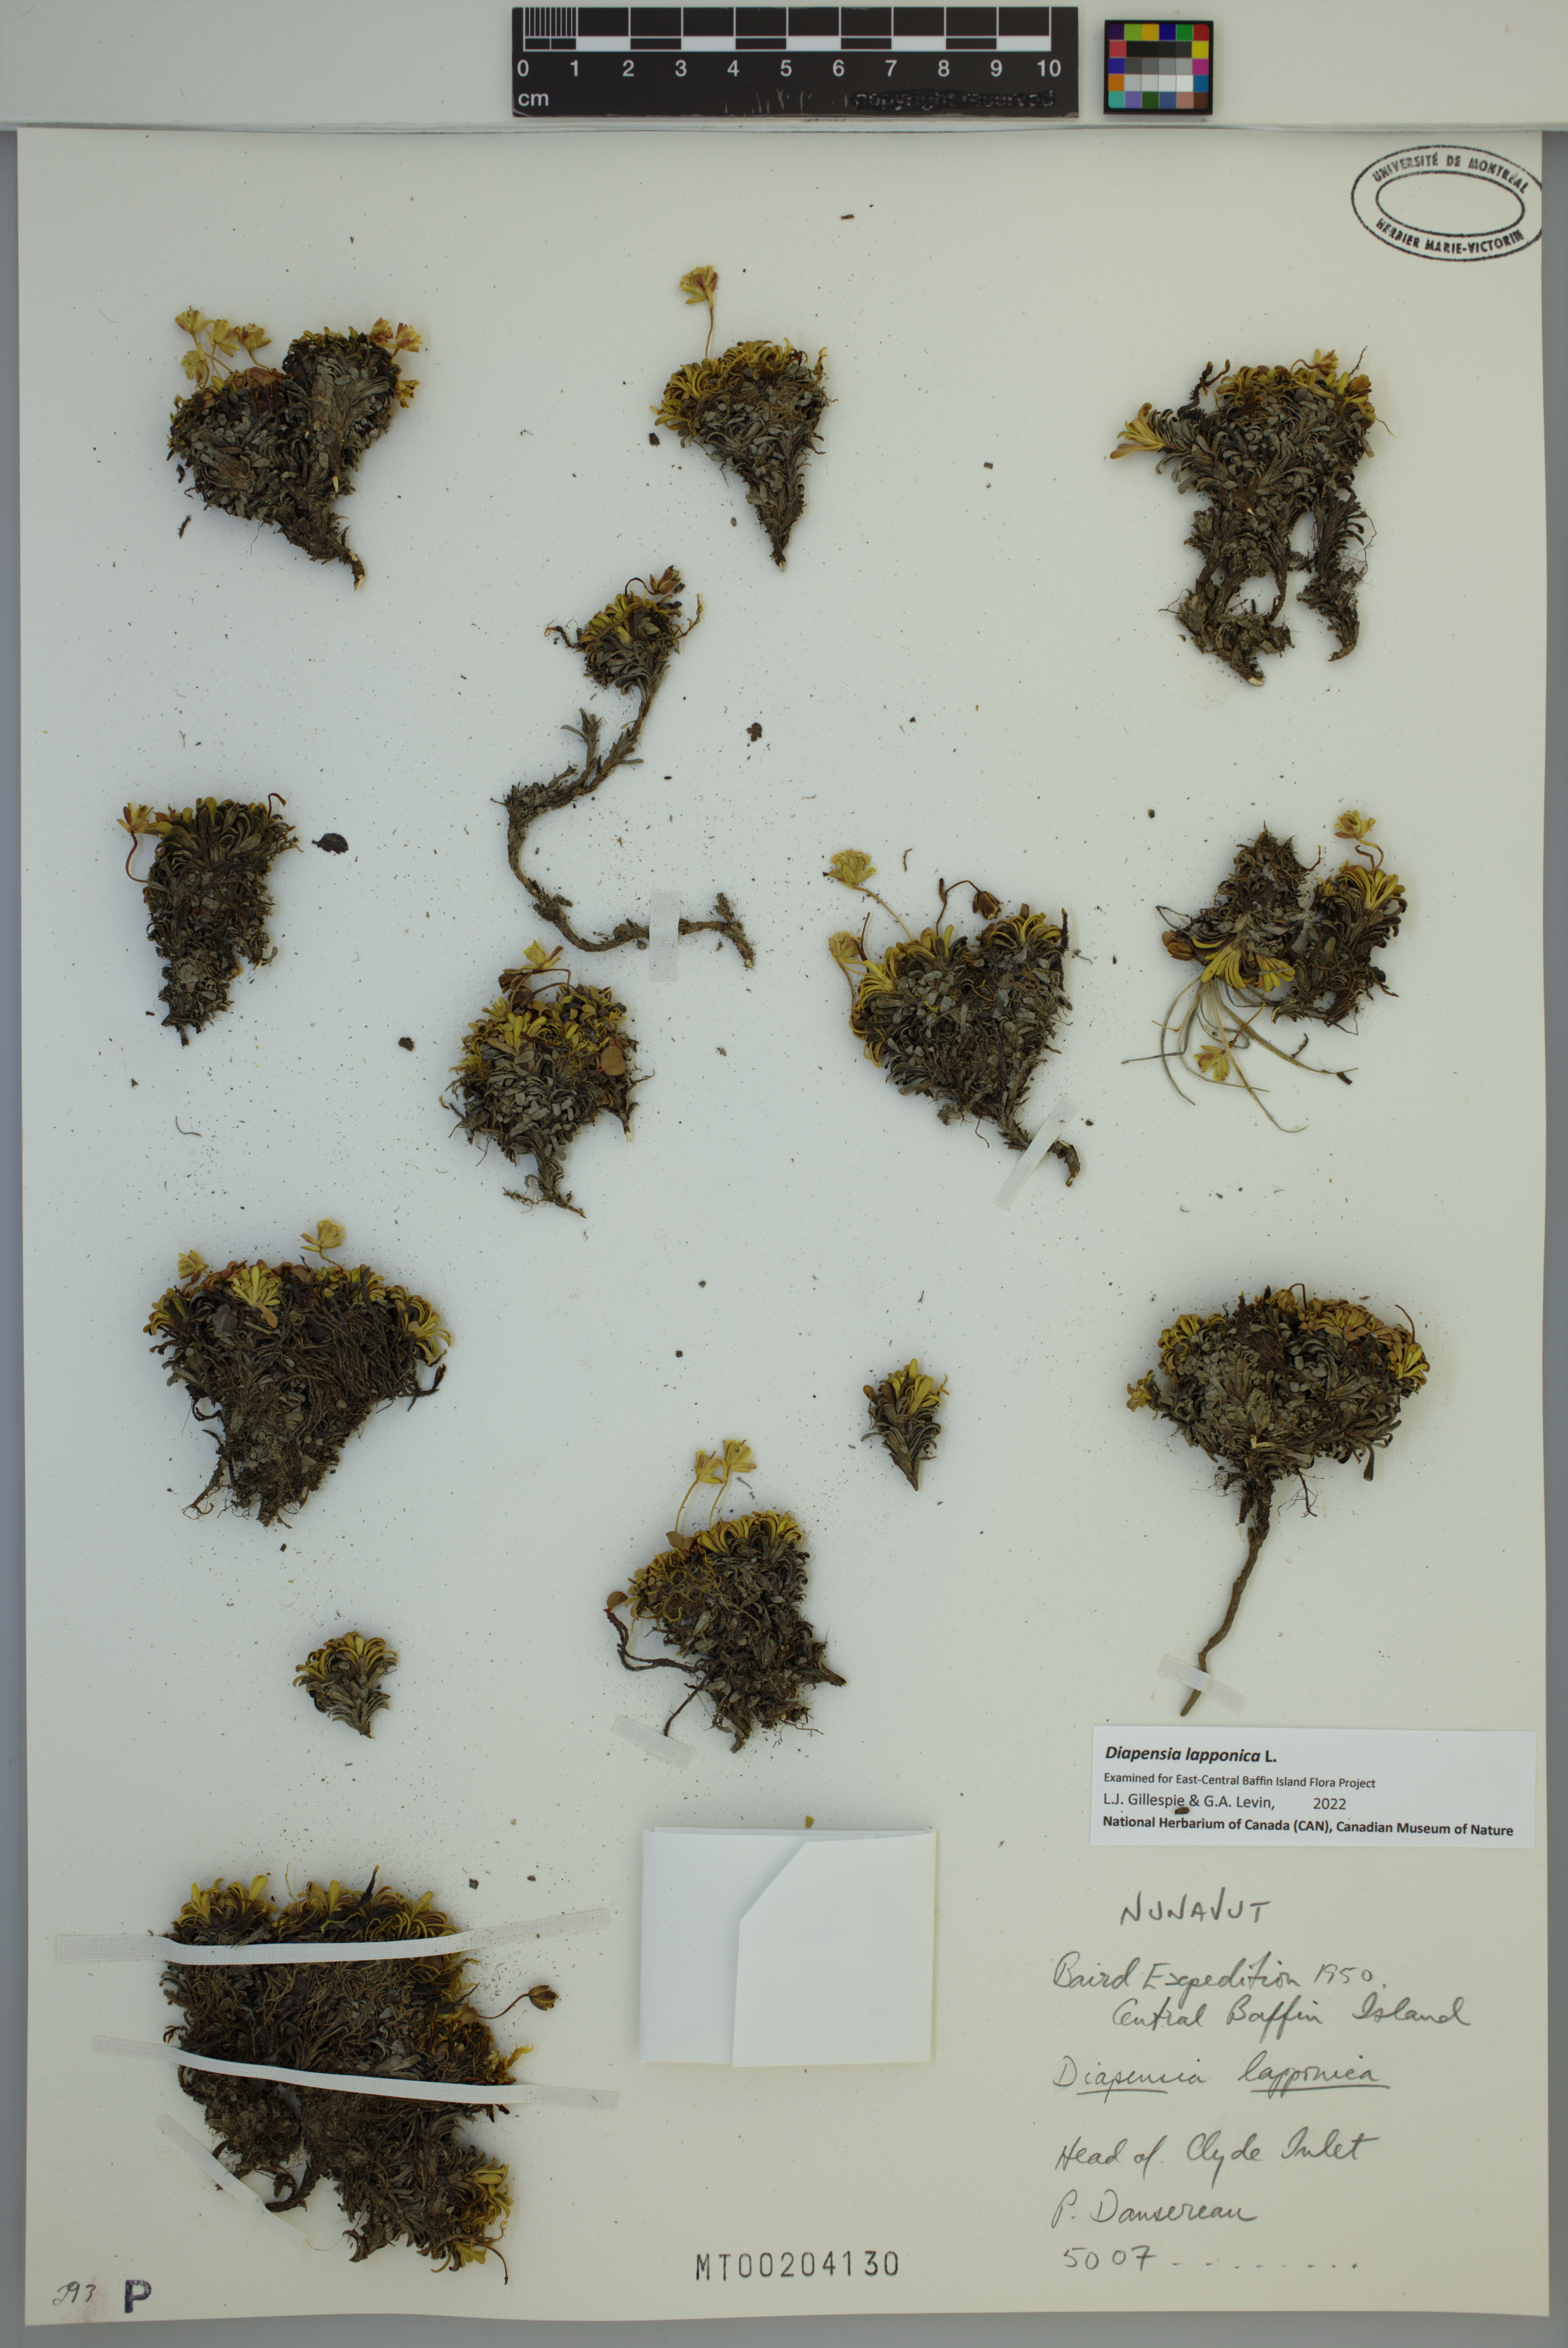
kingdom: Plantae
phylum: Tracheophyta
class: Magnoliopsida
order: Ericales
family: Diapensiaceae
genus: Diapensia
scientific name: Diapensia lapponica
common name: Diapensia
